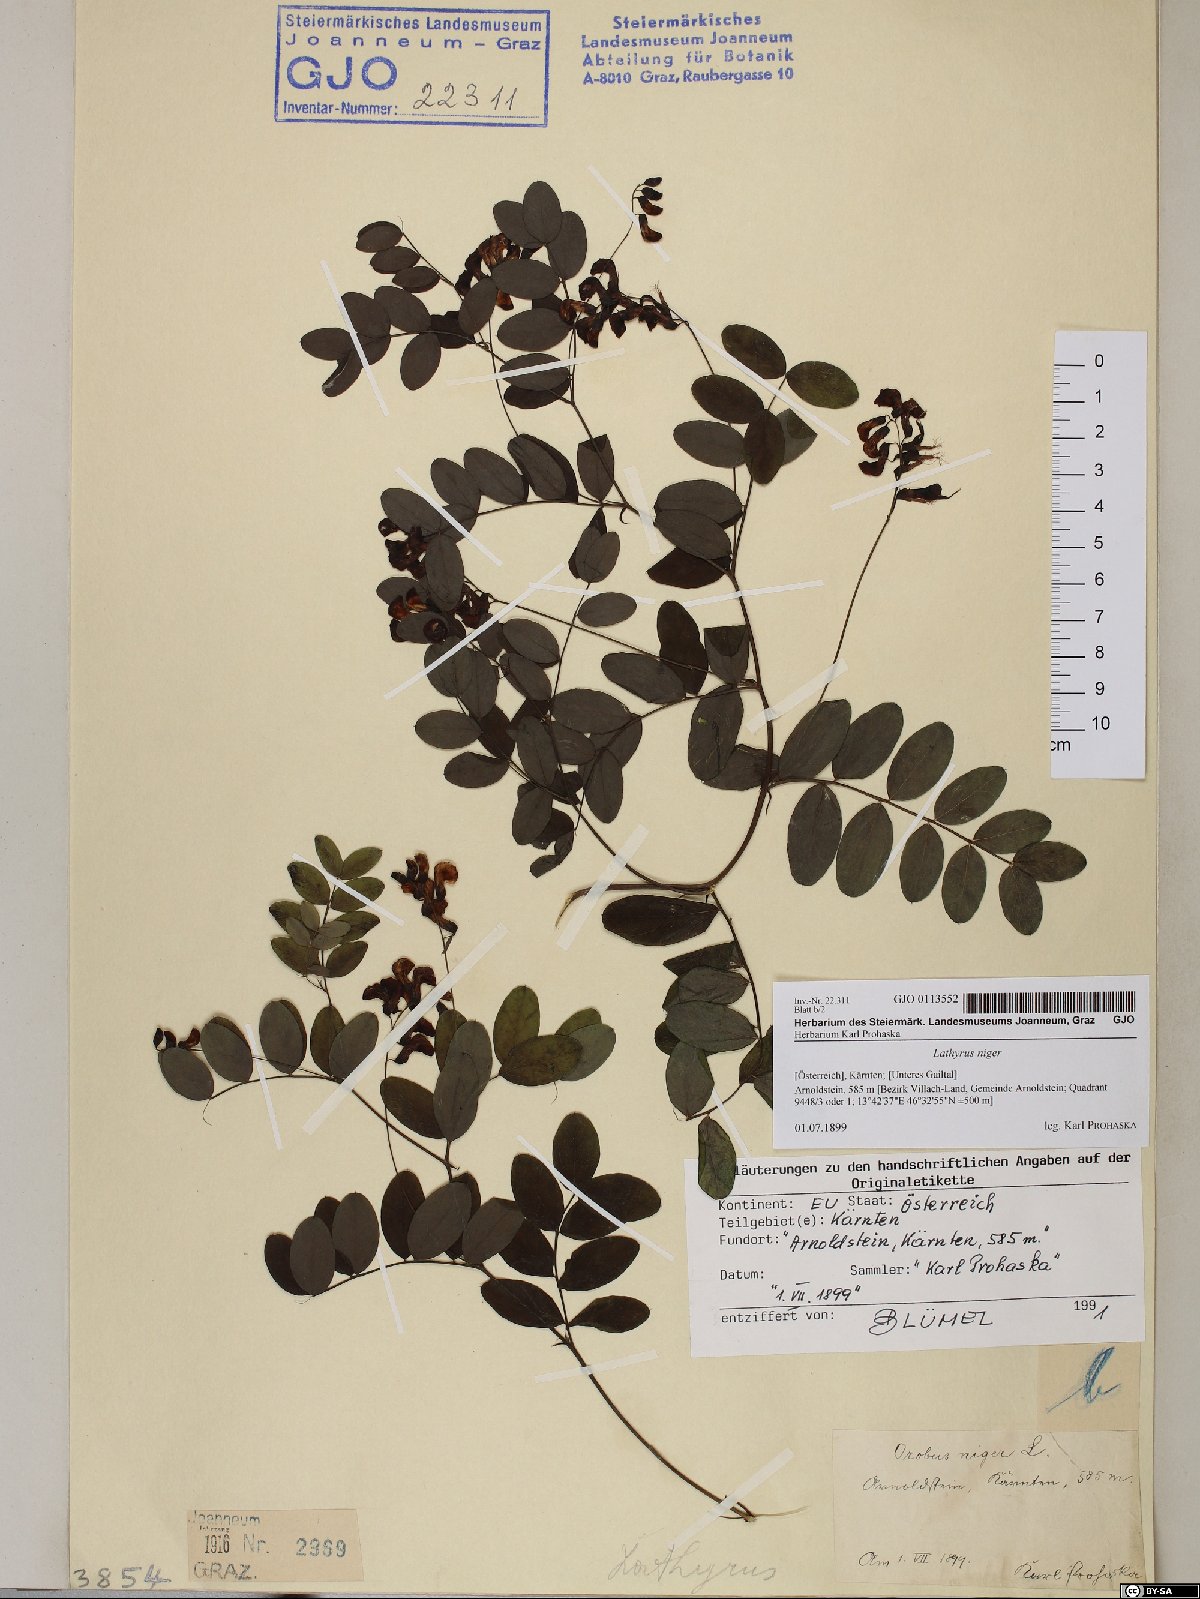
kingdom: Plantae
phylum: Tracheophyta
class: Magnoliopsida
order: Fabales
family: Fabaceae
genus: Lathyrus
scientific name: Lathyrus niger
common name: Black pea
